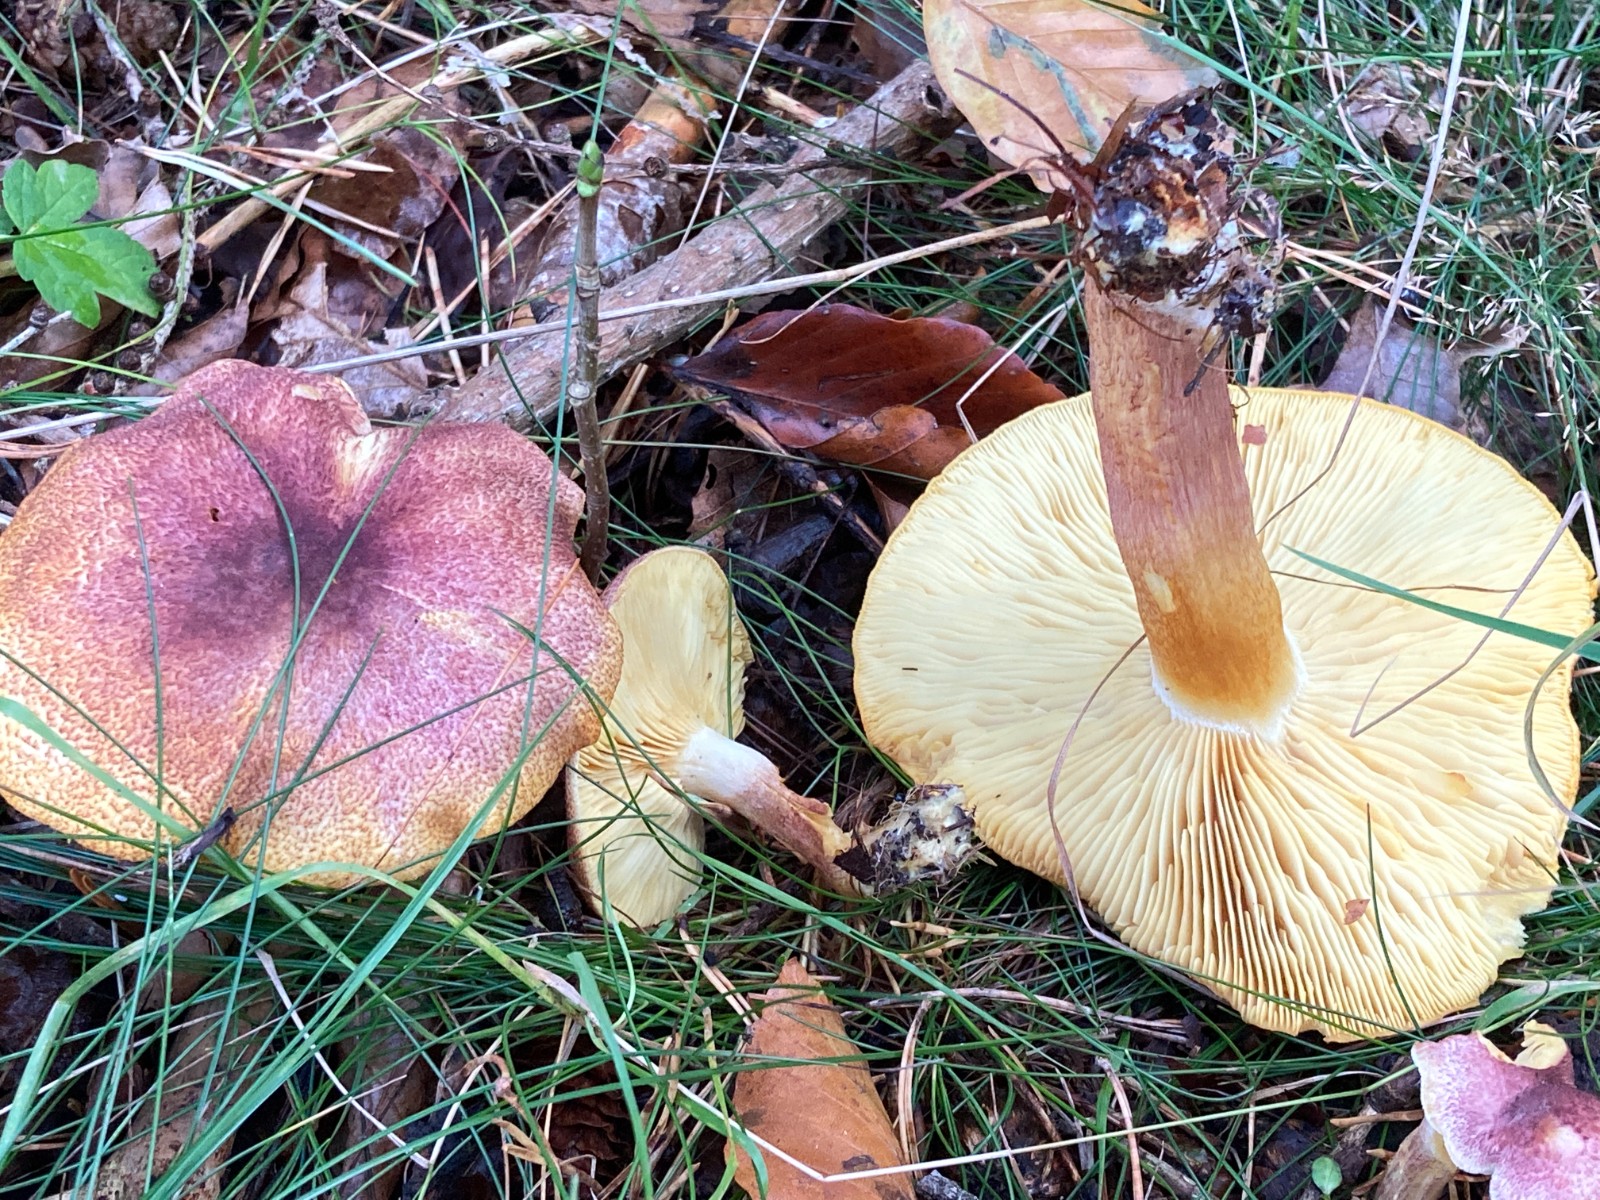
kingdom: Fungi
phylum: Basidiomycota
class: Agaricomycetes
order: Agaricales
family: Tricholomataceae
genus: Tricholomopsis
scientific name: Tricholomopsis rutilans
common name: purpur-væbnerhat
